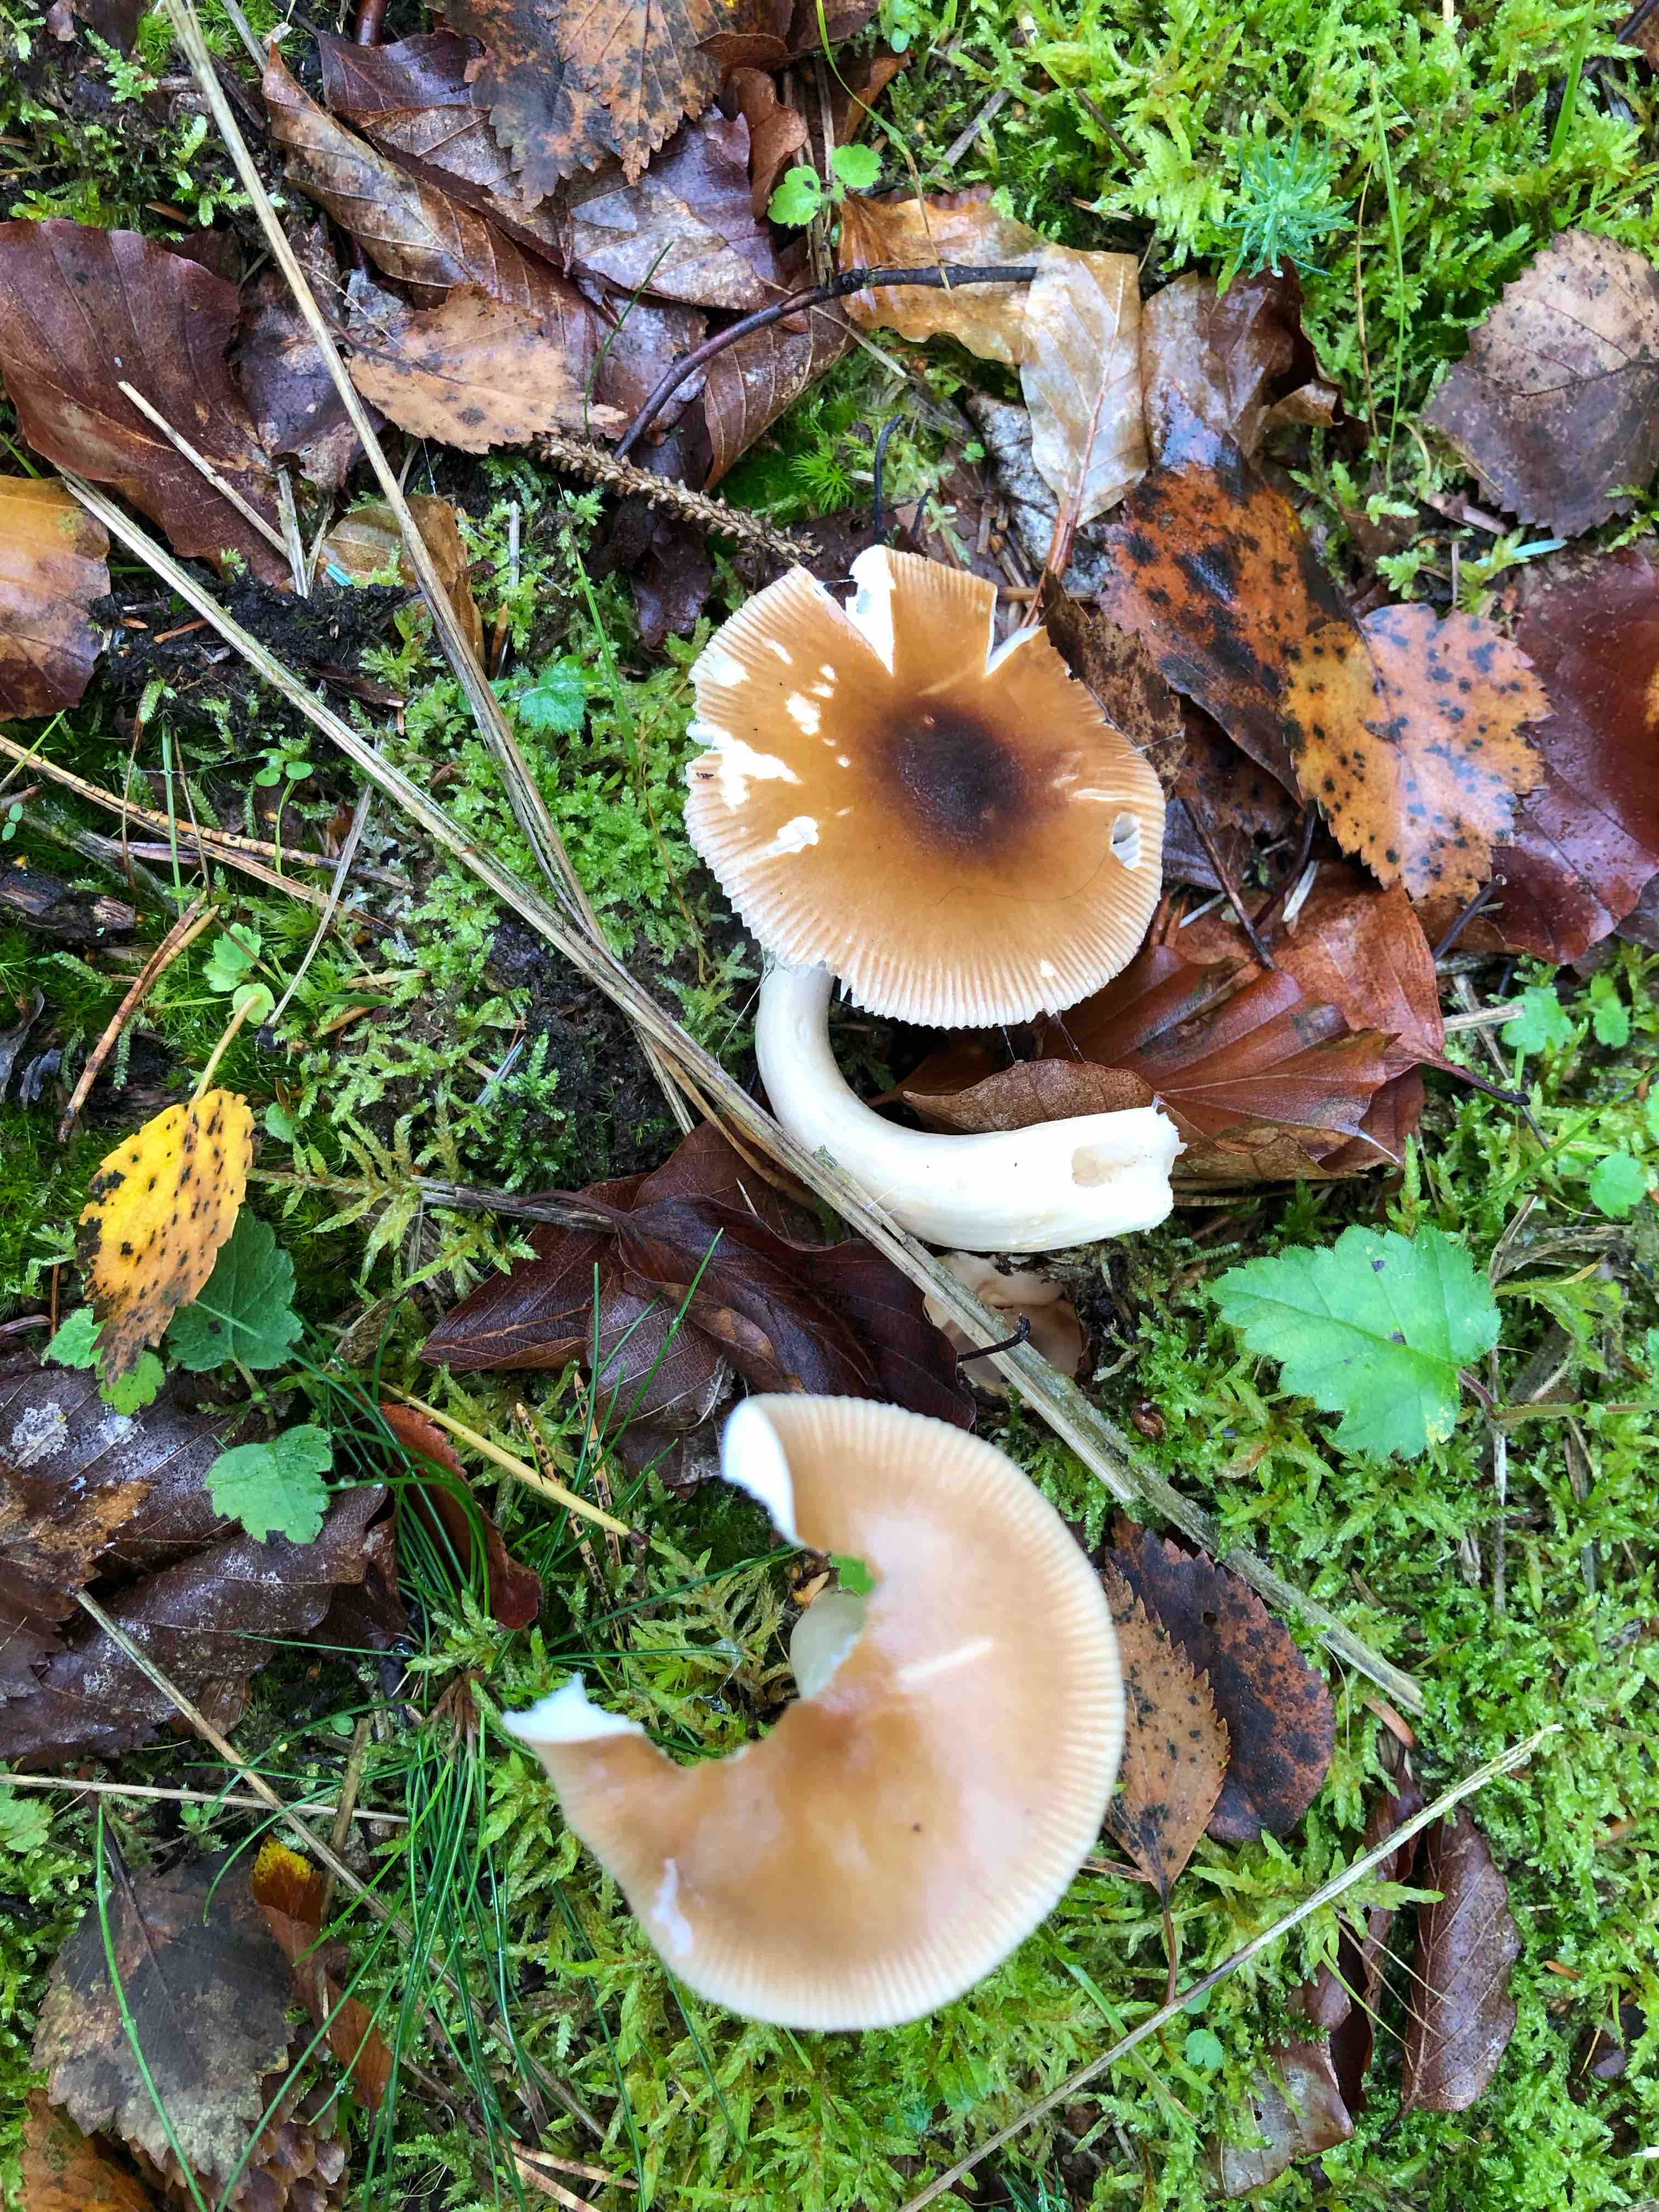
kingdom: Fungi
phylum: Basidiomycota
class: Agaricomycetes
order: Agaricales
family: Amanitaceae
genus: Amanita
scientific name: Amanita fulva
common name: brun kam-fluesvamp
